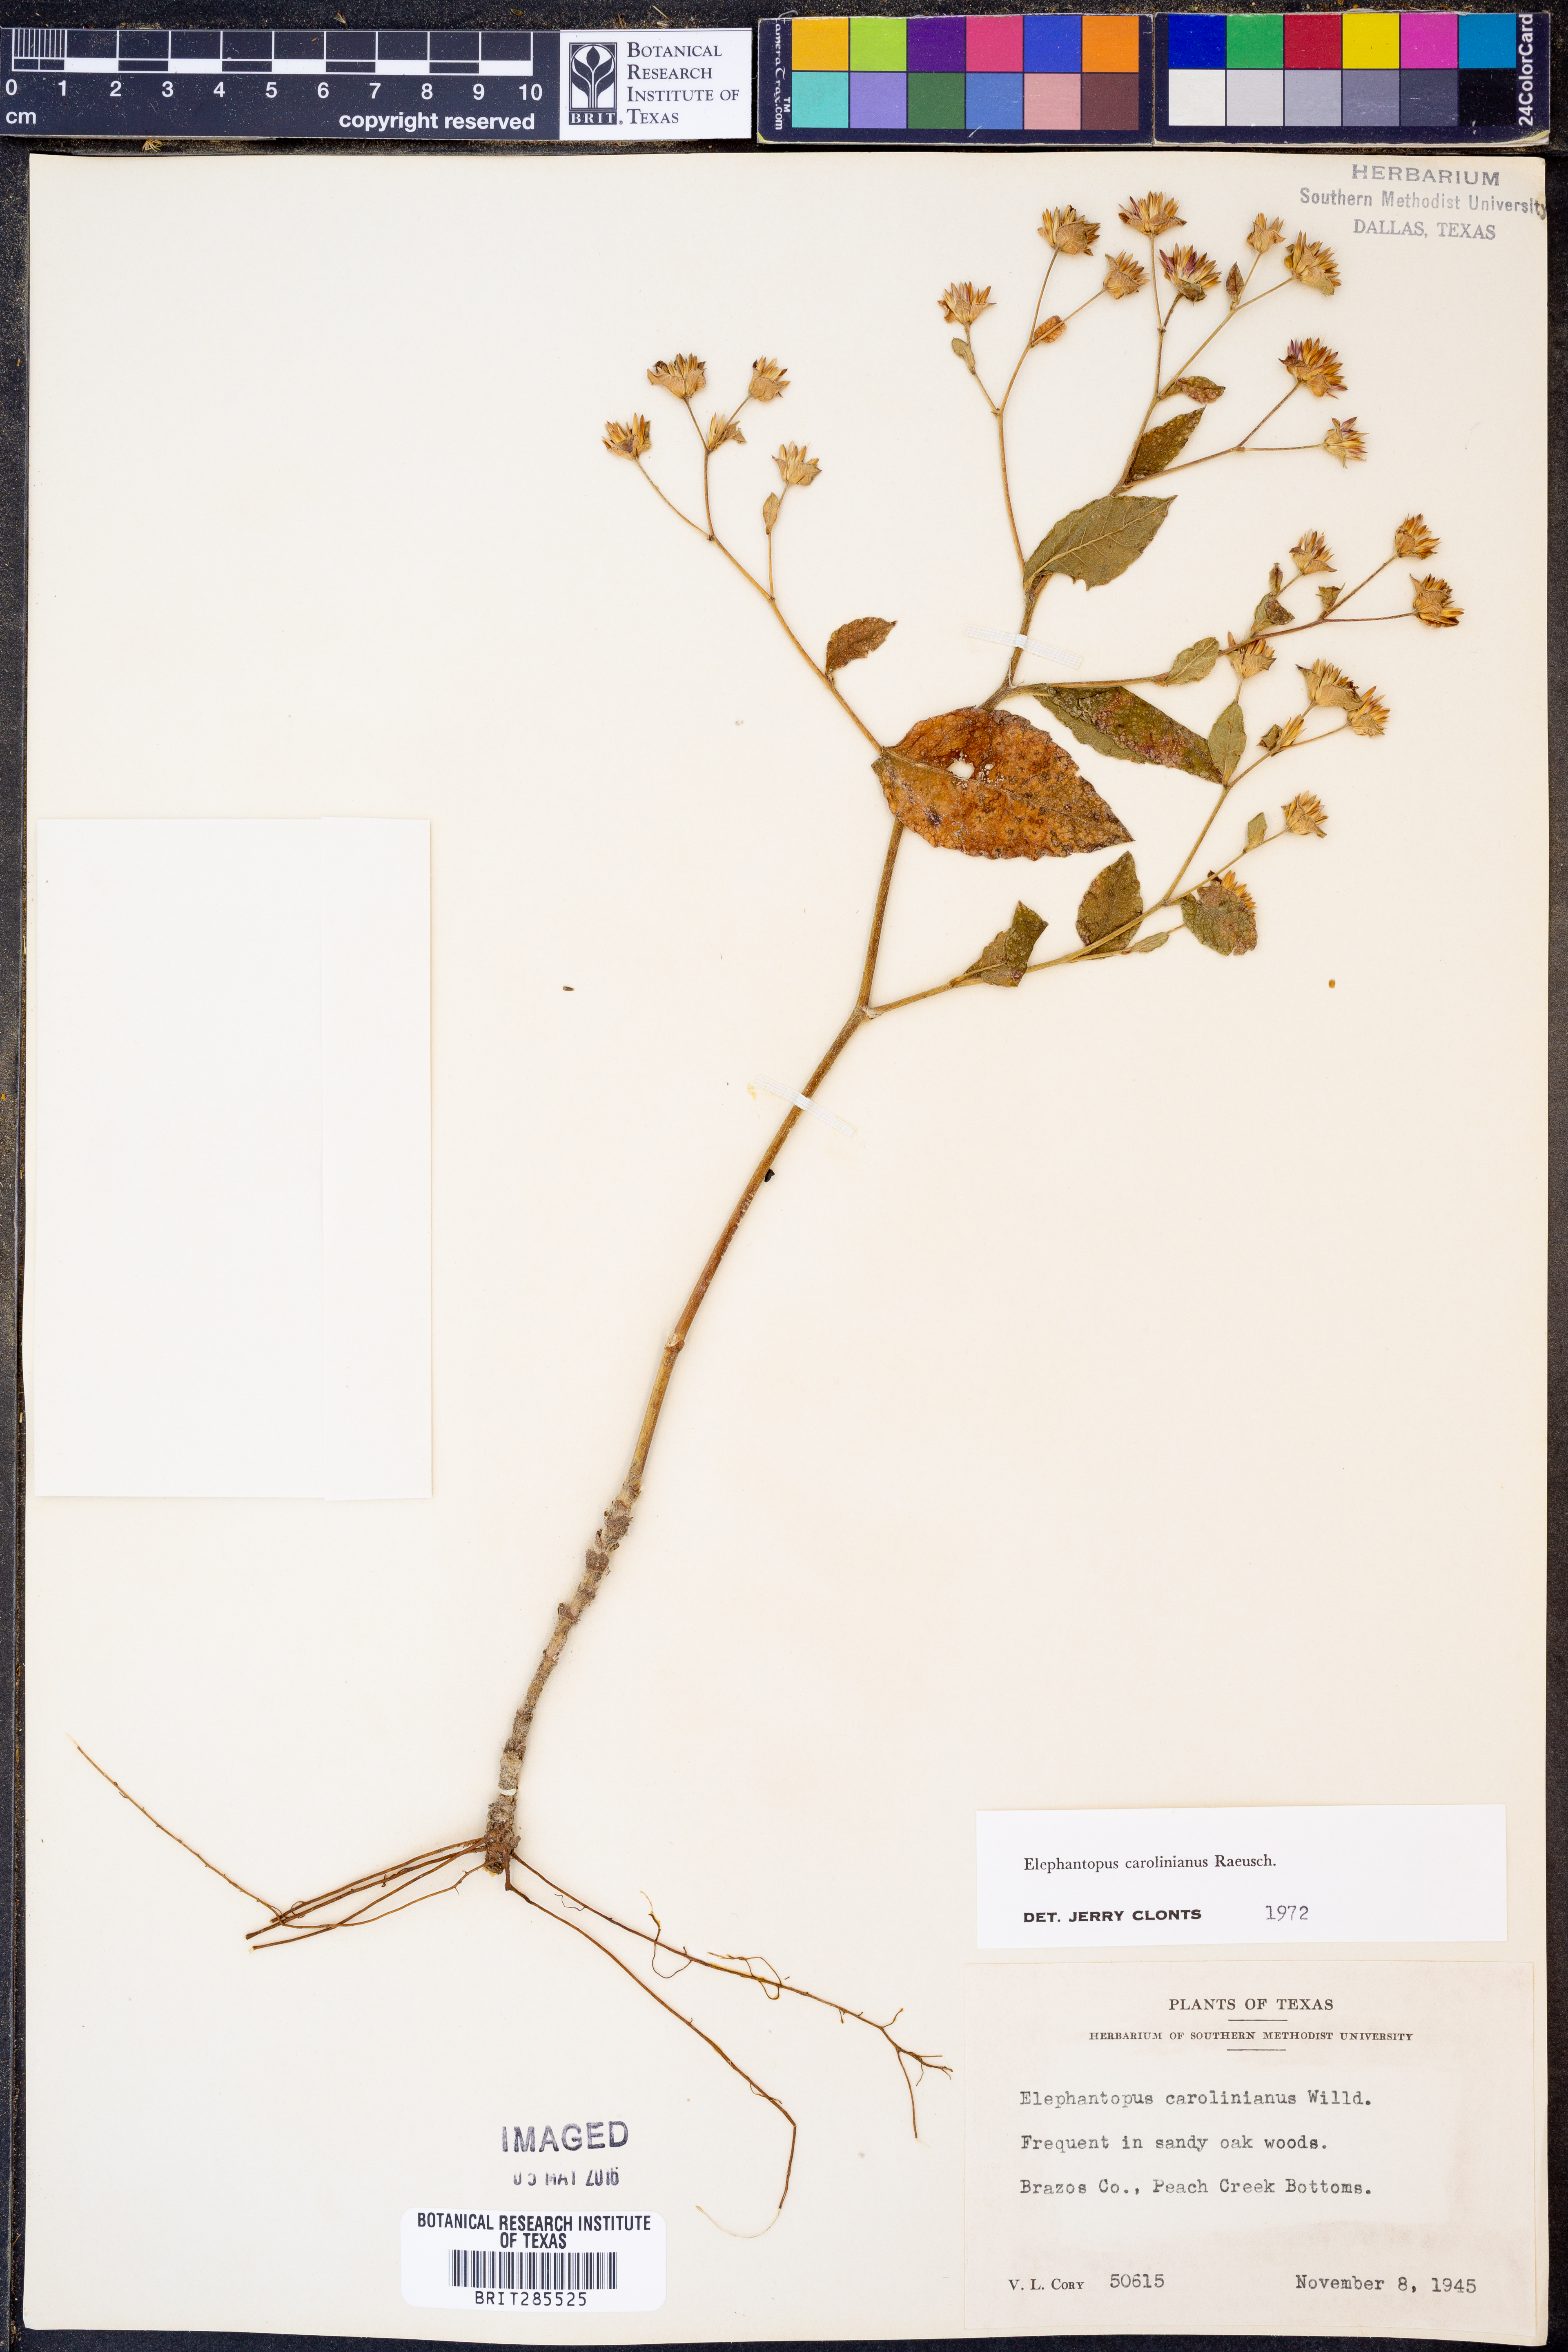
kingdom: Plantae
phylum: Tracheophyta
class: Magnoliopsida
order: Asterales
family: Asteraceae
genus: Elephantopus
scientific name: Elephantopus carolinianus
